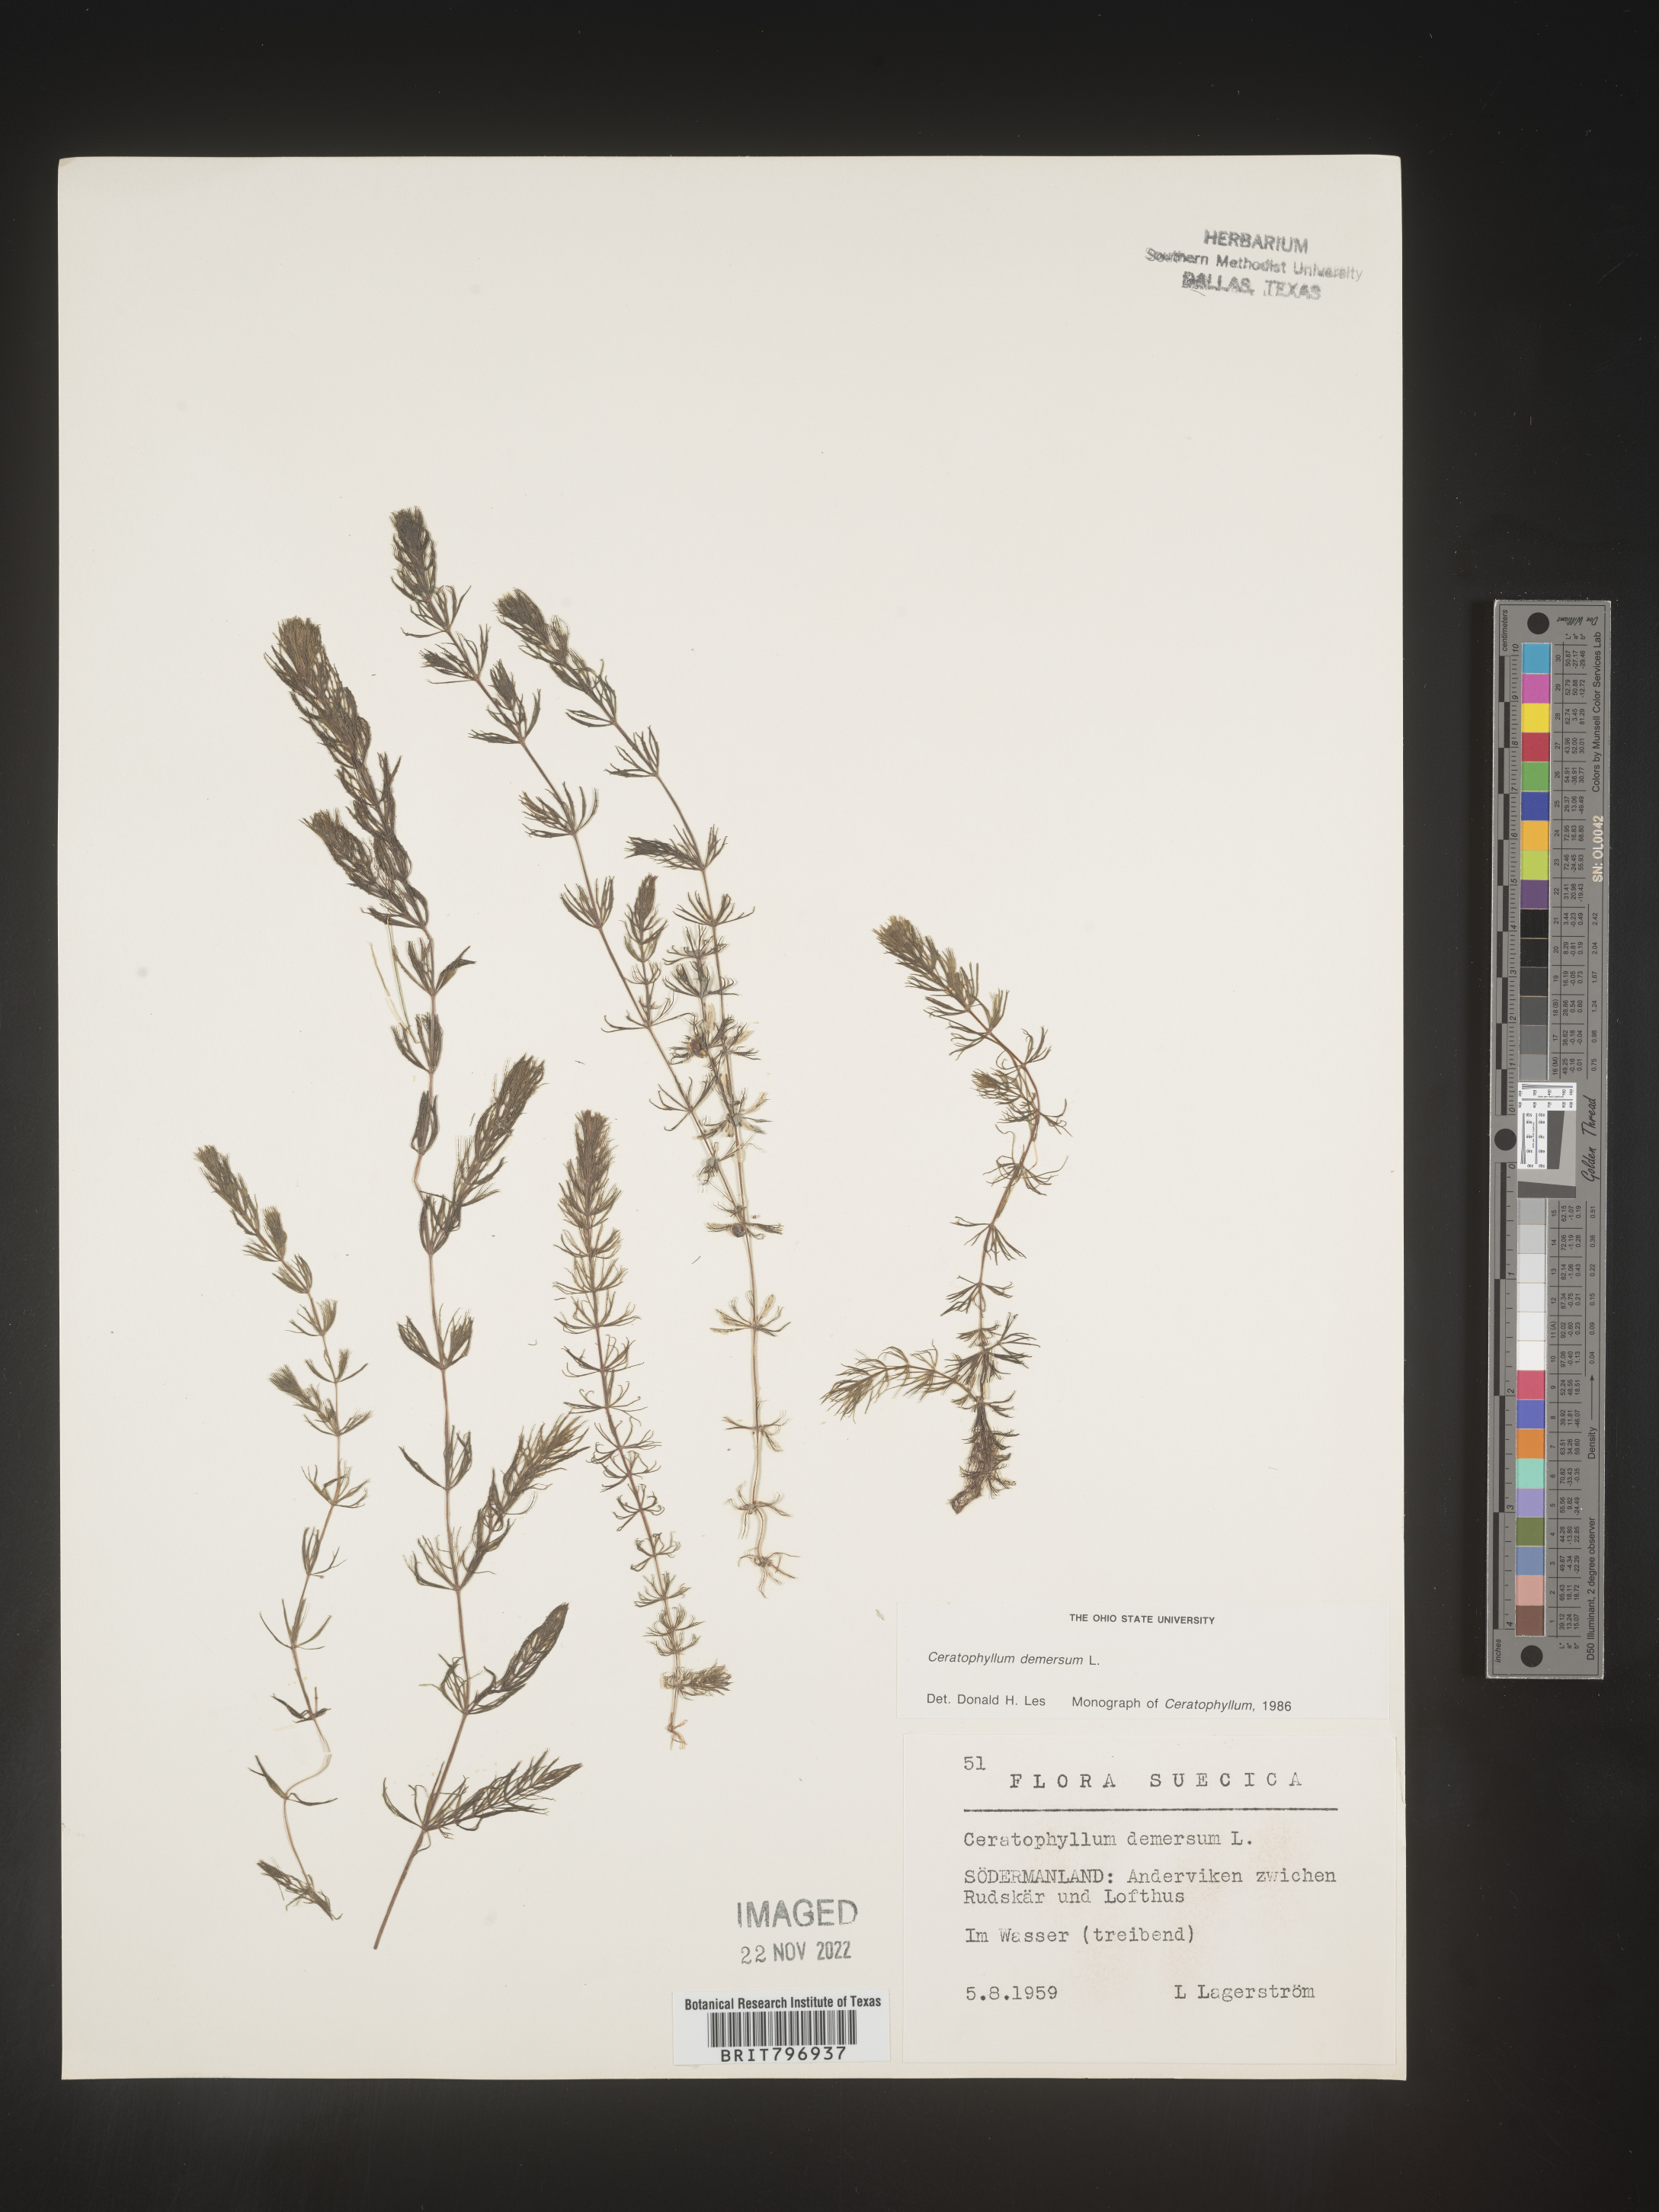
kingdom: Plantae
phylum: Tracheophyta
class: Magnoliopsida
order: Ceratophyllales
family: Ceratophyllaceae
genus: Ceratophyllum
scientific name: Ceratophyllum
